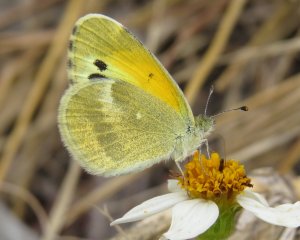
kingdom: Animalia
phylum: Arthropoda
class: Insecta
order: Lepidoptera
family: Pieridae
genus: Nathalis
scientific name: Nathalis iole
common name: Dainty Sulphur
